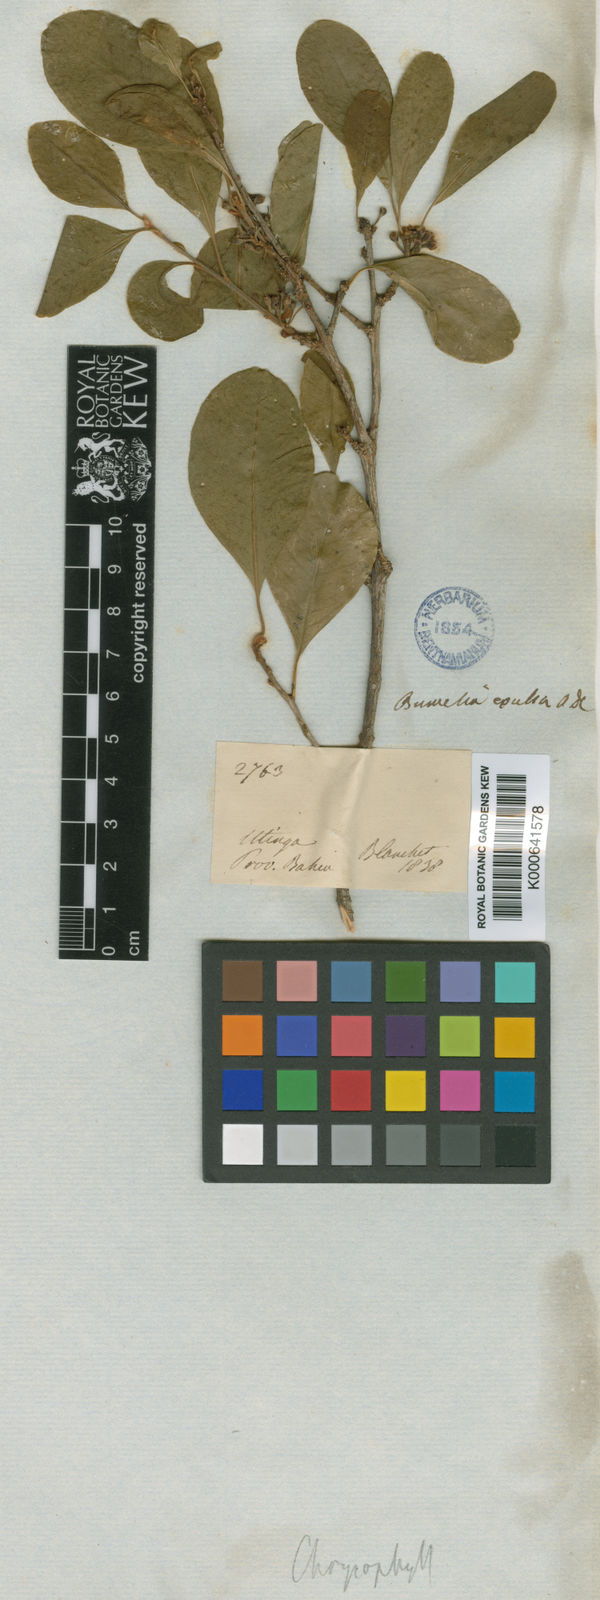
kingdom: Plantae
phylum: Tracheophyta
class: Magnoliopsida
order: Ericales
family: Sapotaceae
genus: Sideroxylon
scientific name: Sideroxylon obtusifolium
